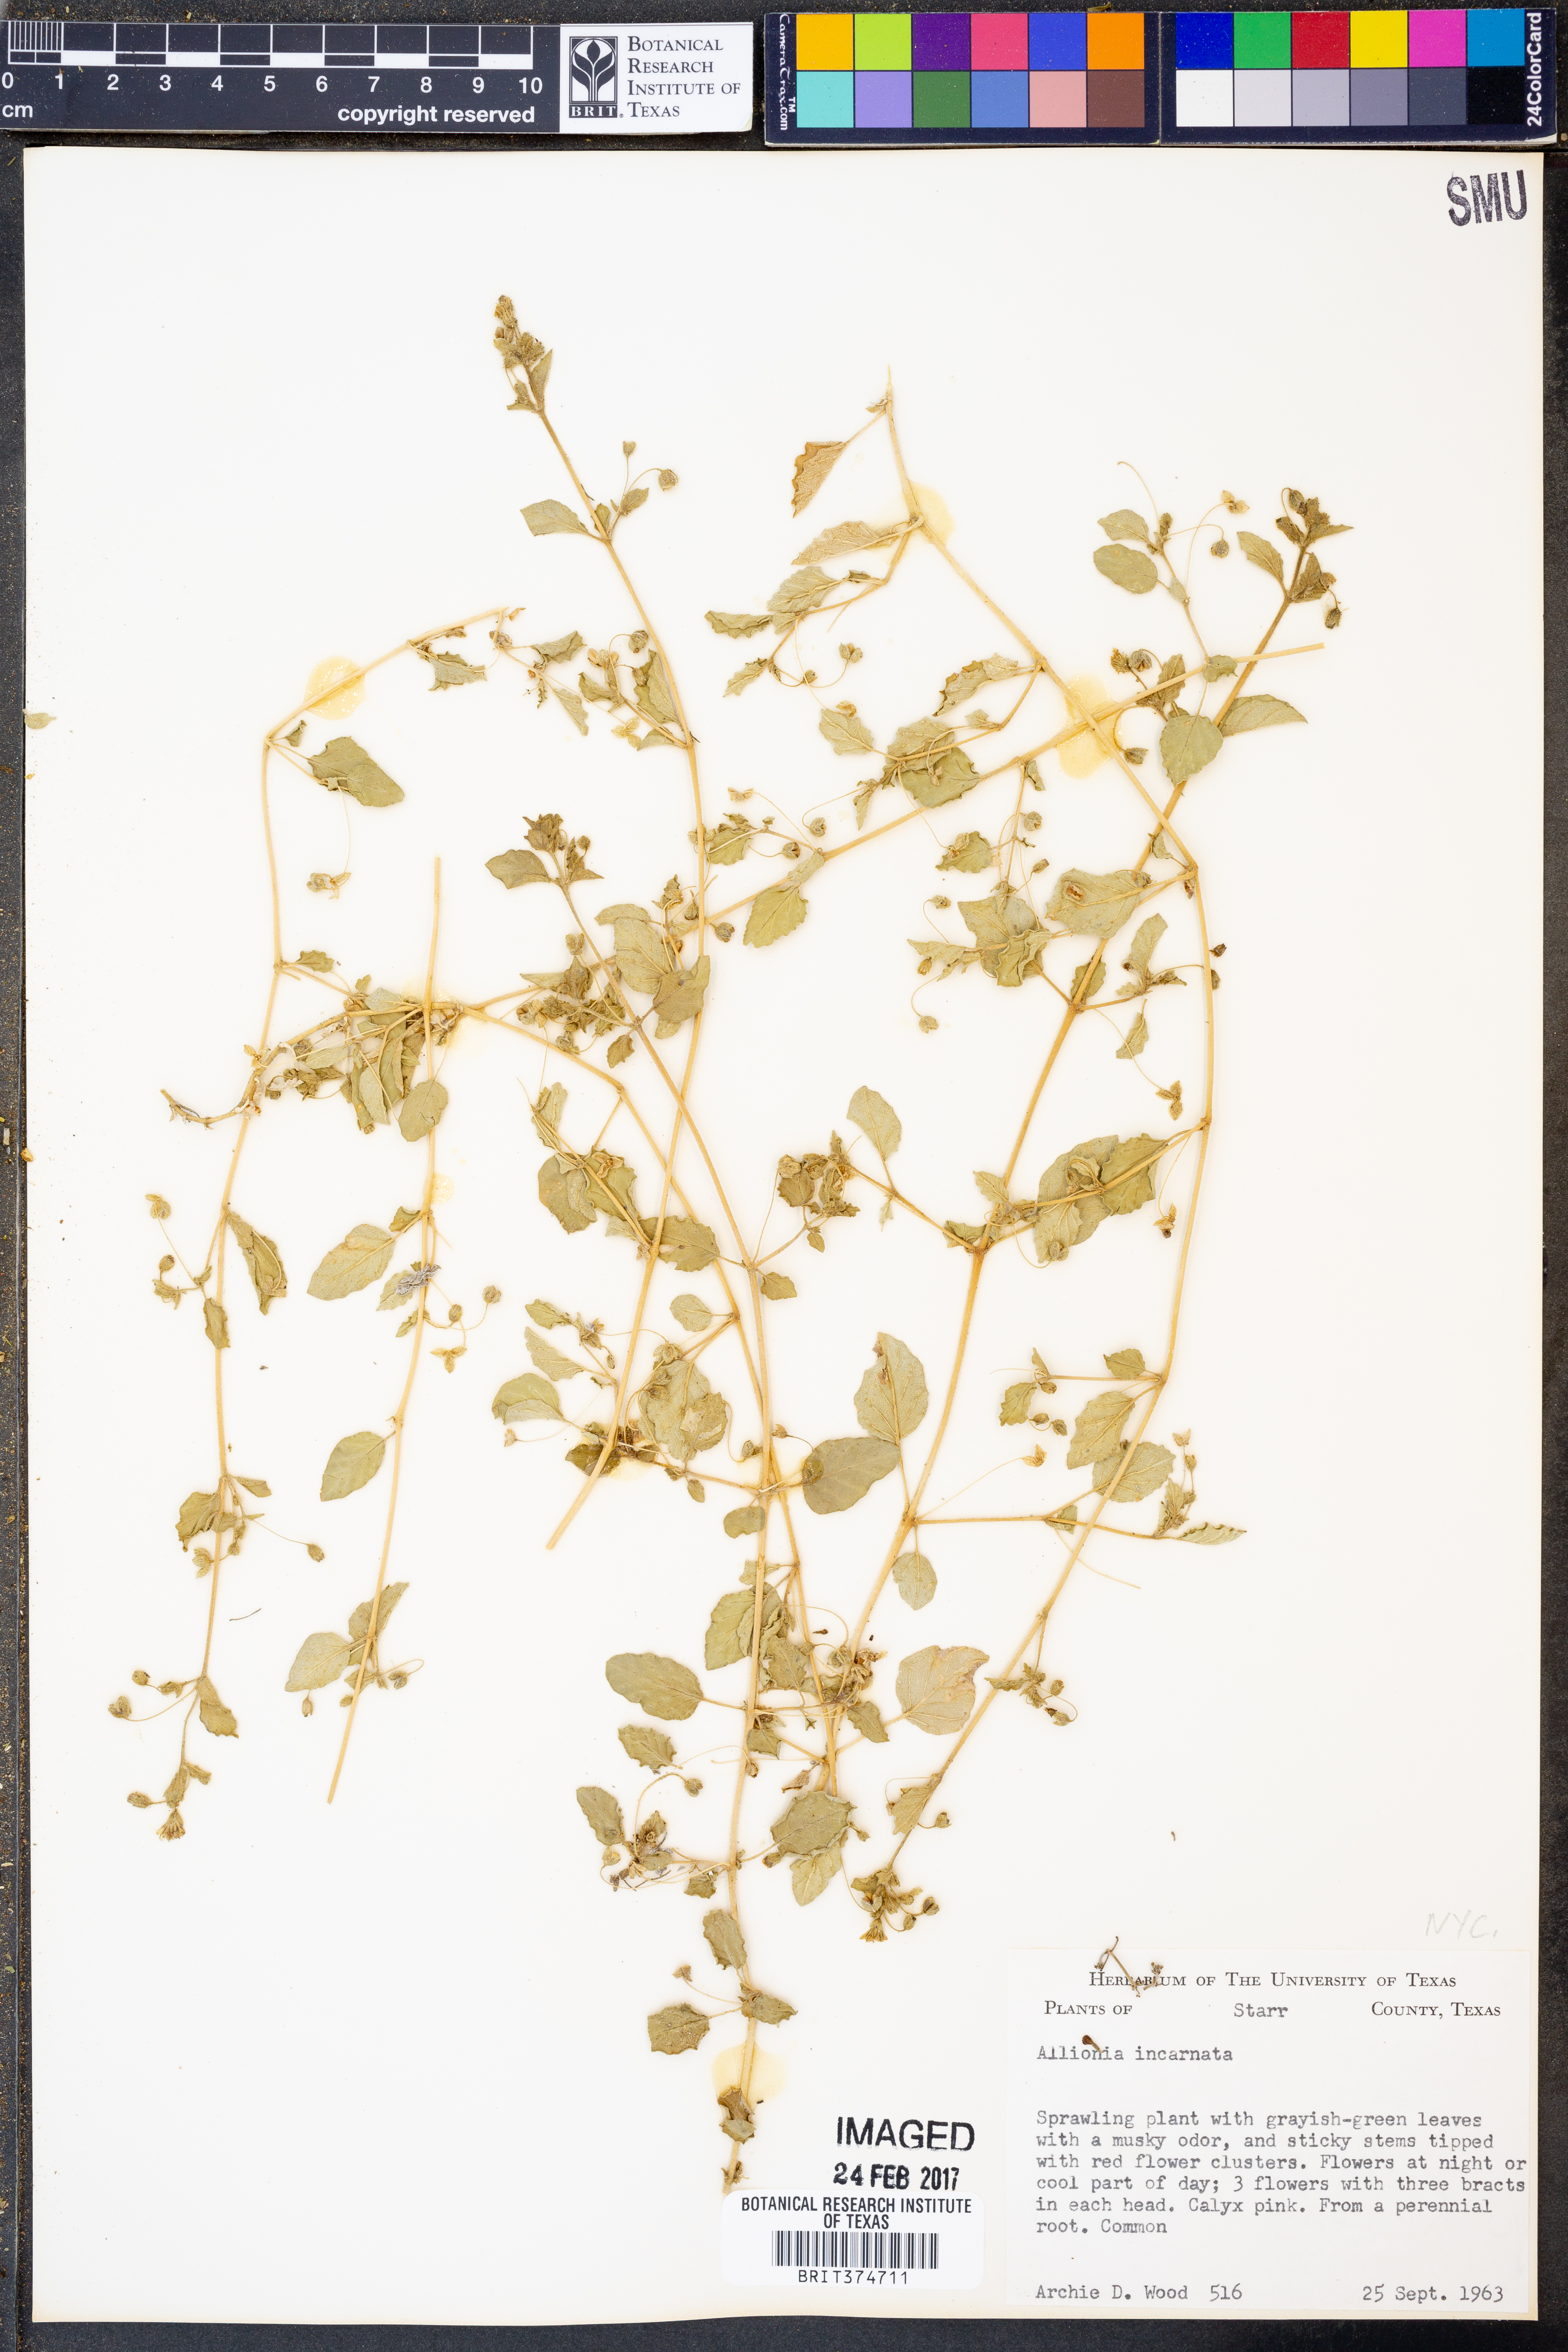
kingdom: Plantae
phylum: Tracheophyta
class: Magnoliopsida
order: Caryophyllales
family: Nyctaginaceae
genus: Allionia
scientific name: Allionia incarnata
